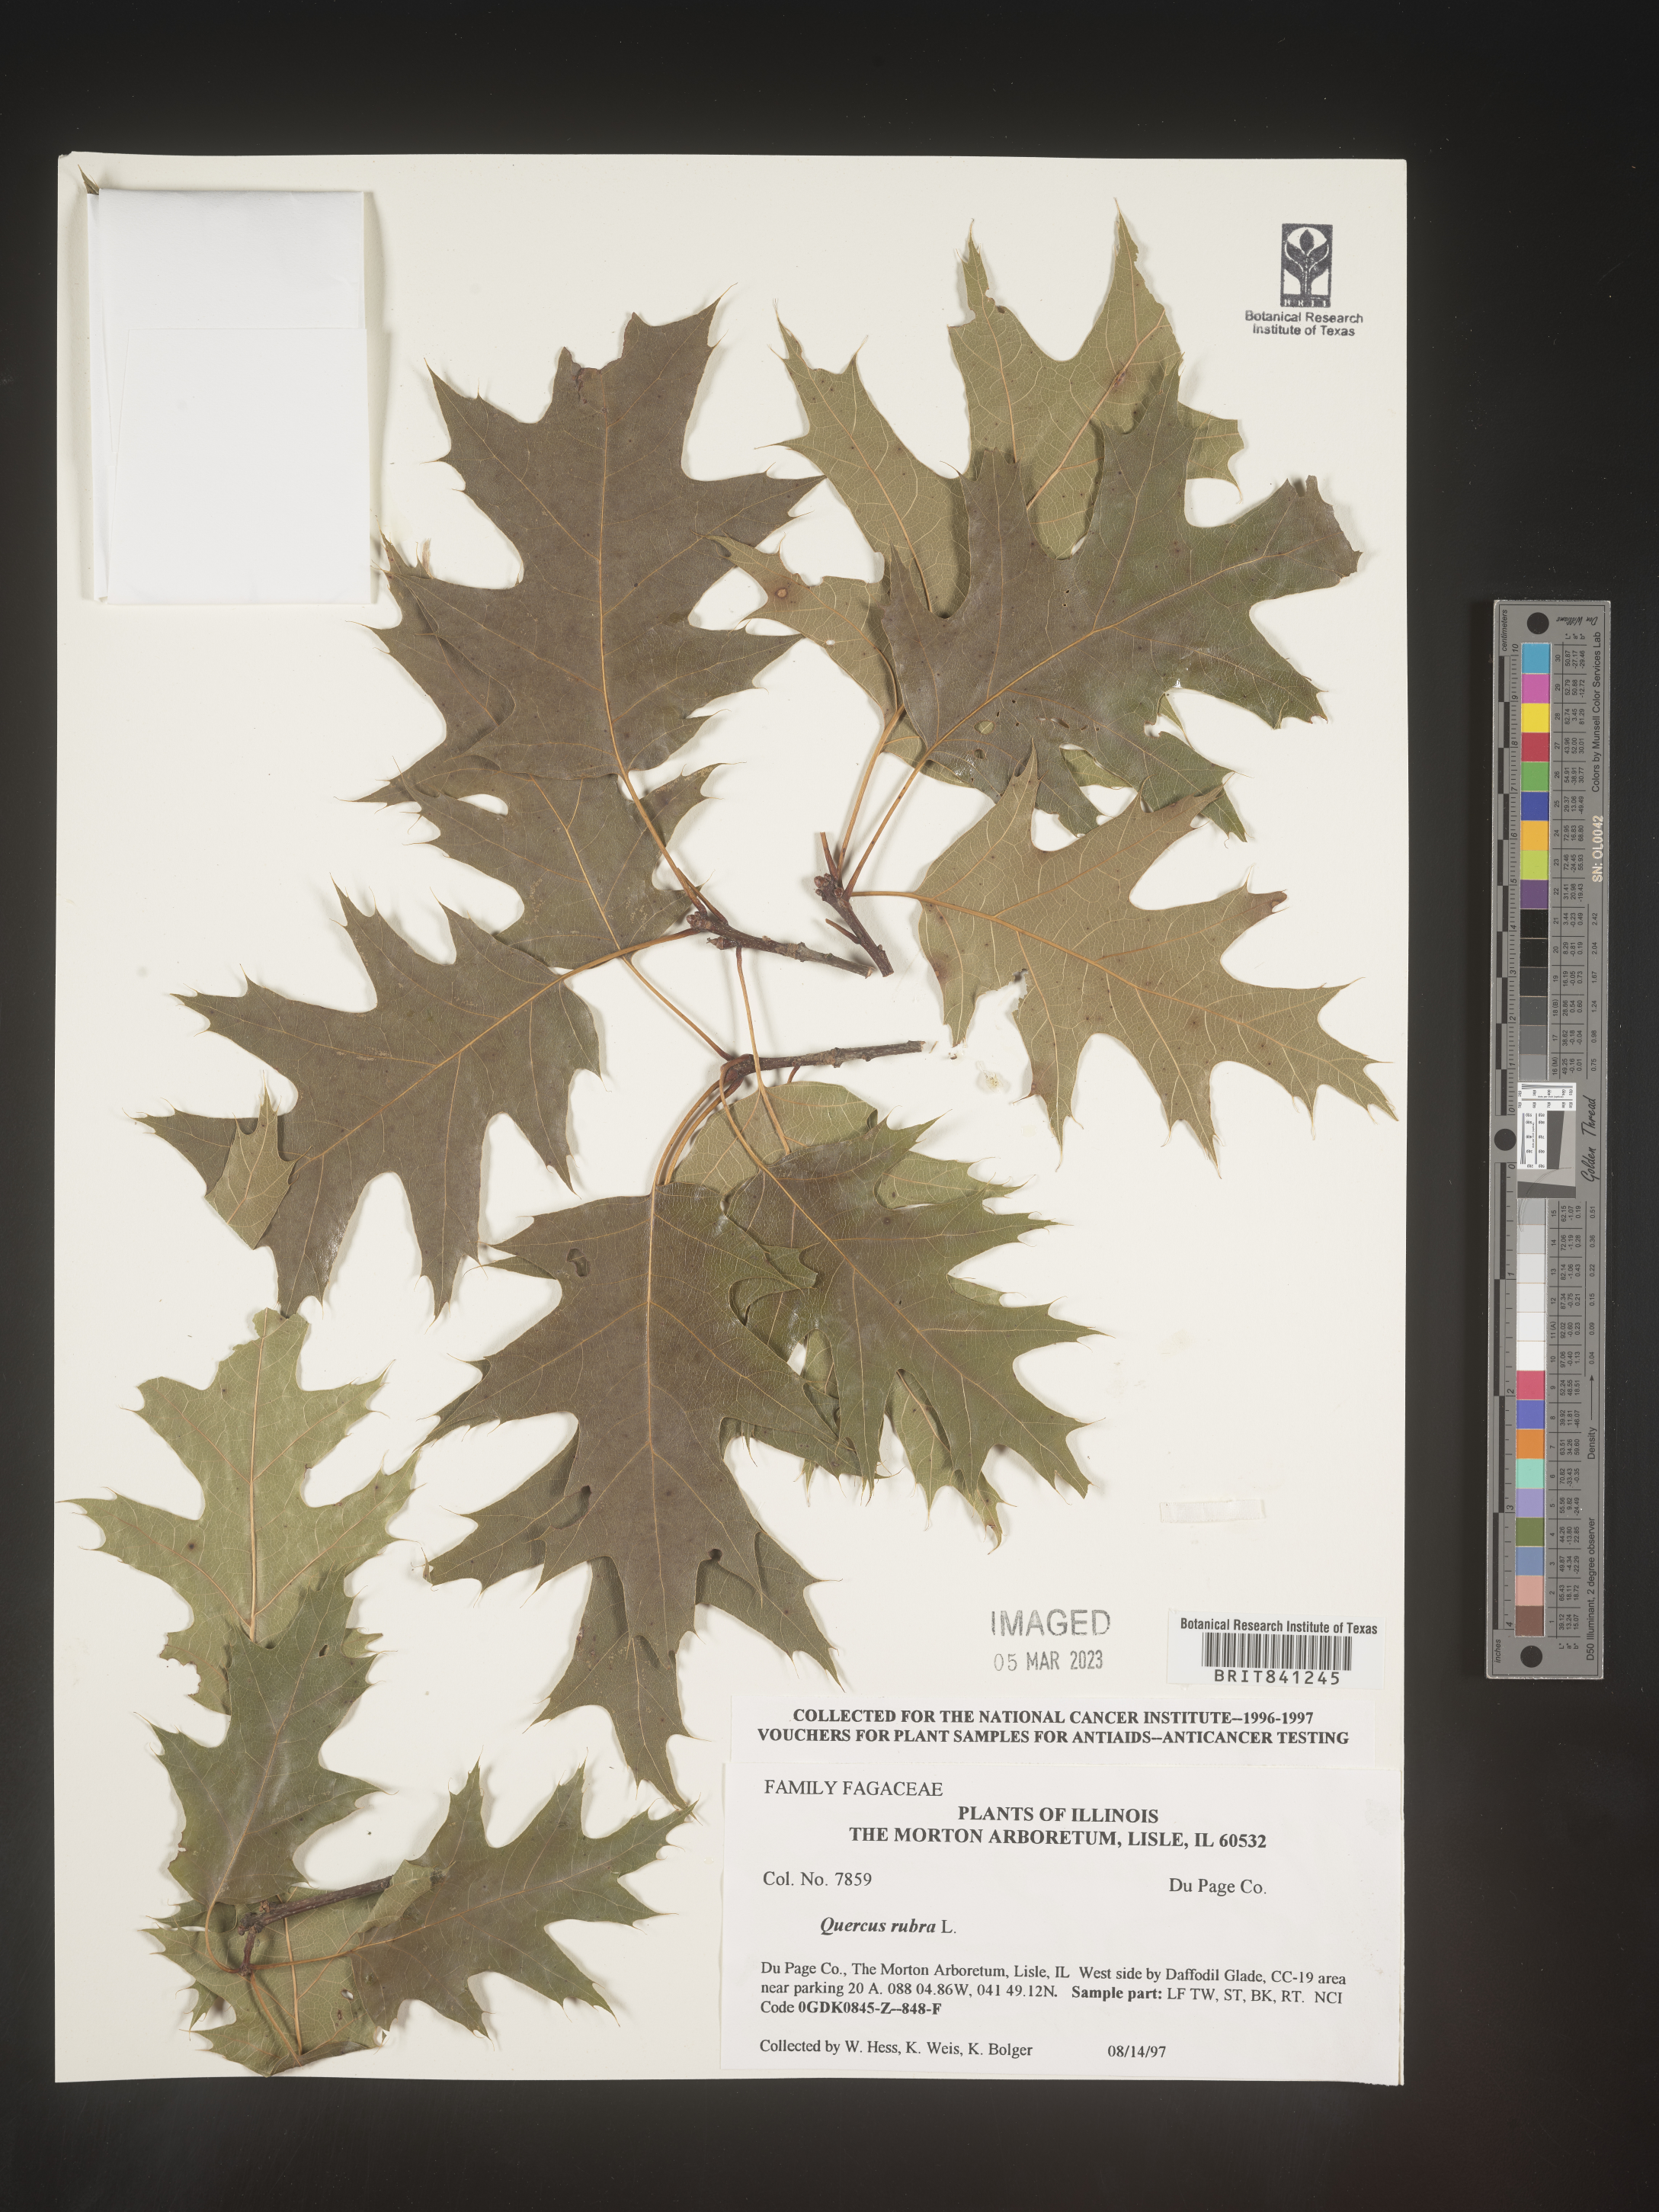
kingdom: Plantae
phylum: Tracheophyta
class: Magnoliopsida
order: Fagales
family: Fagaceae
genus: Quercus
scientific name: Quercus rubra
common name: Red oak
